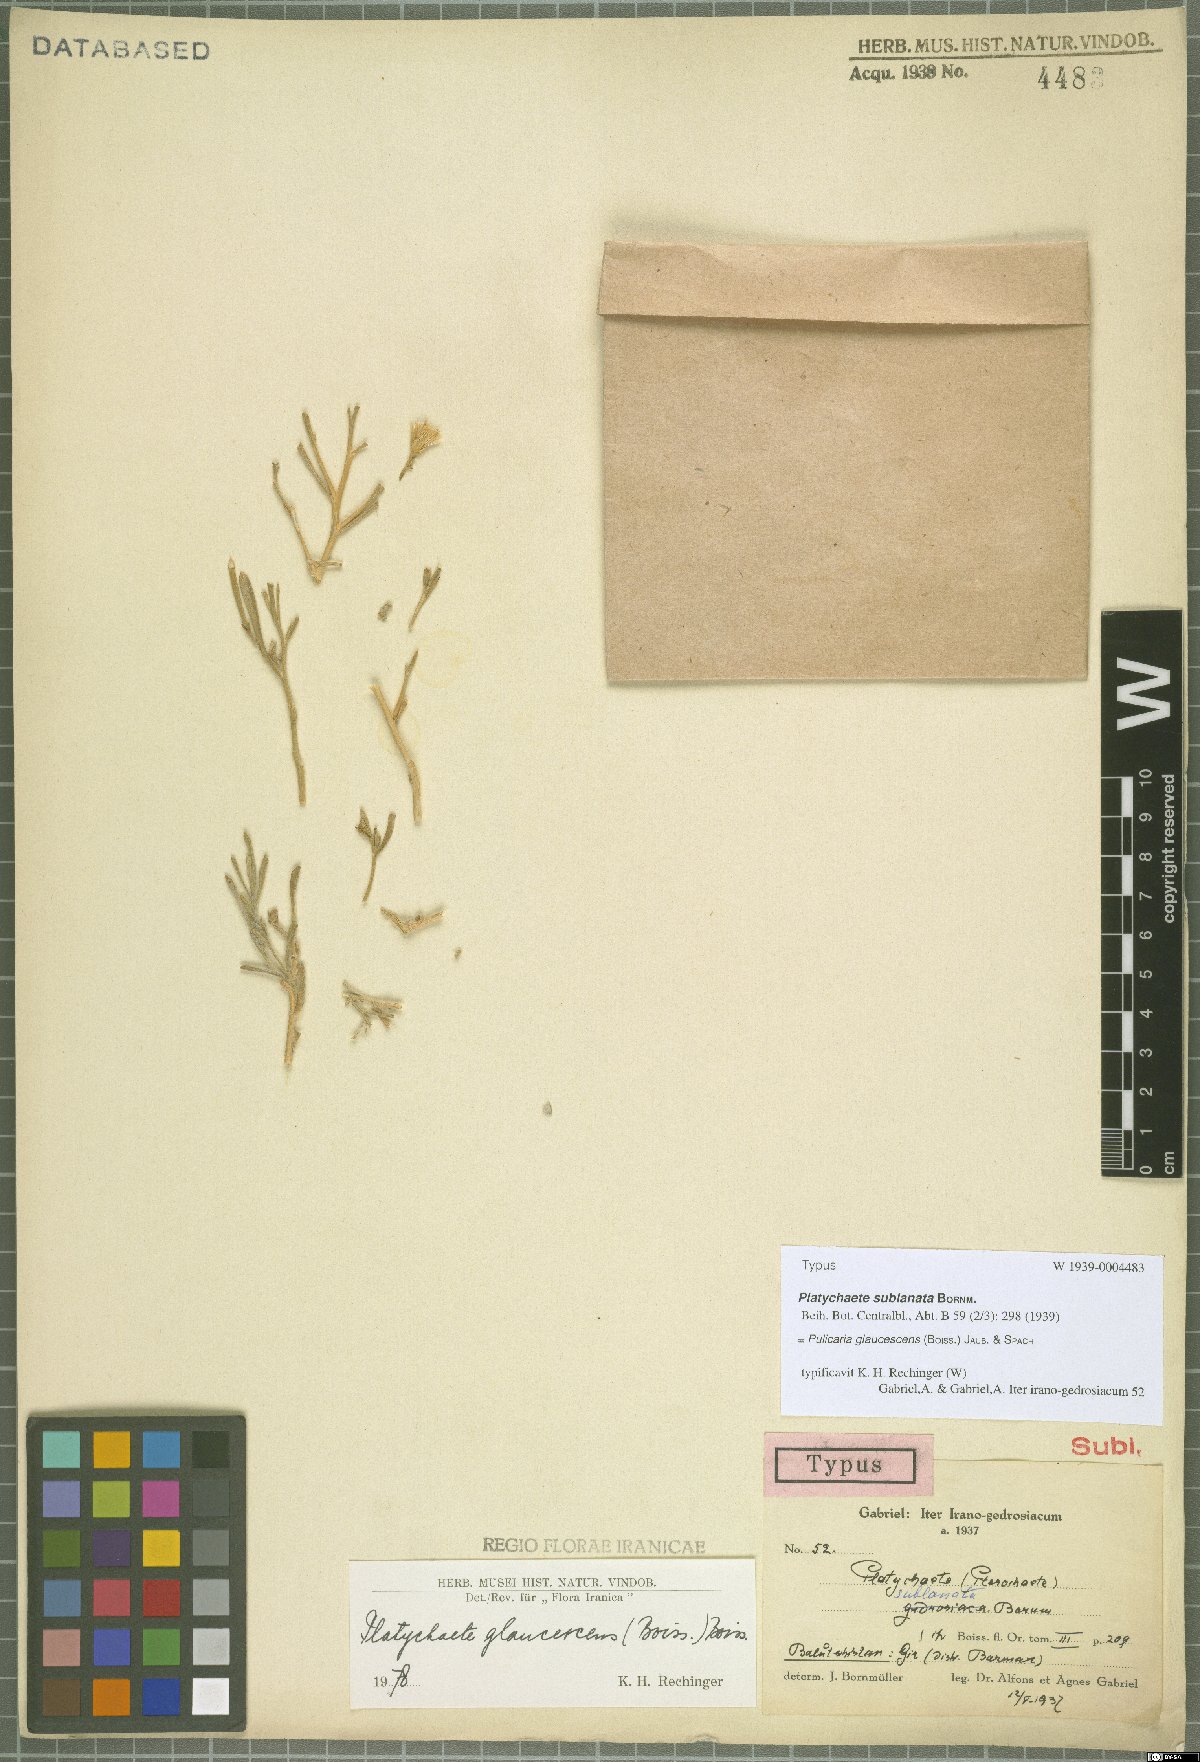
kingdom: Plantae
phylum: Tracheophyta
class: Magnoliopsida
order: Asterales
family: Asteraceae
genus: Pulicaria
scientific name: Pulicaria glaucescens
